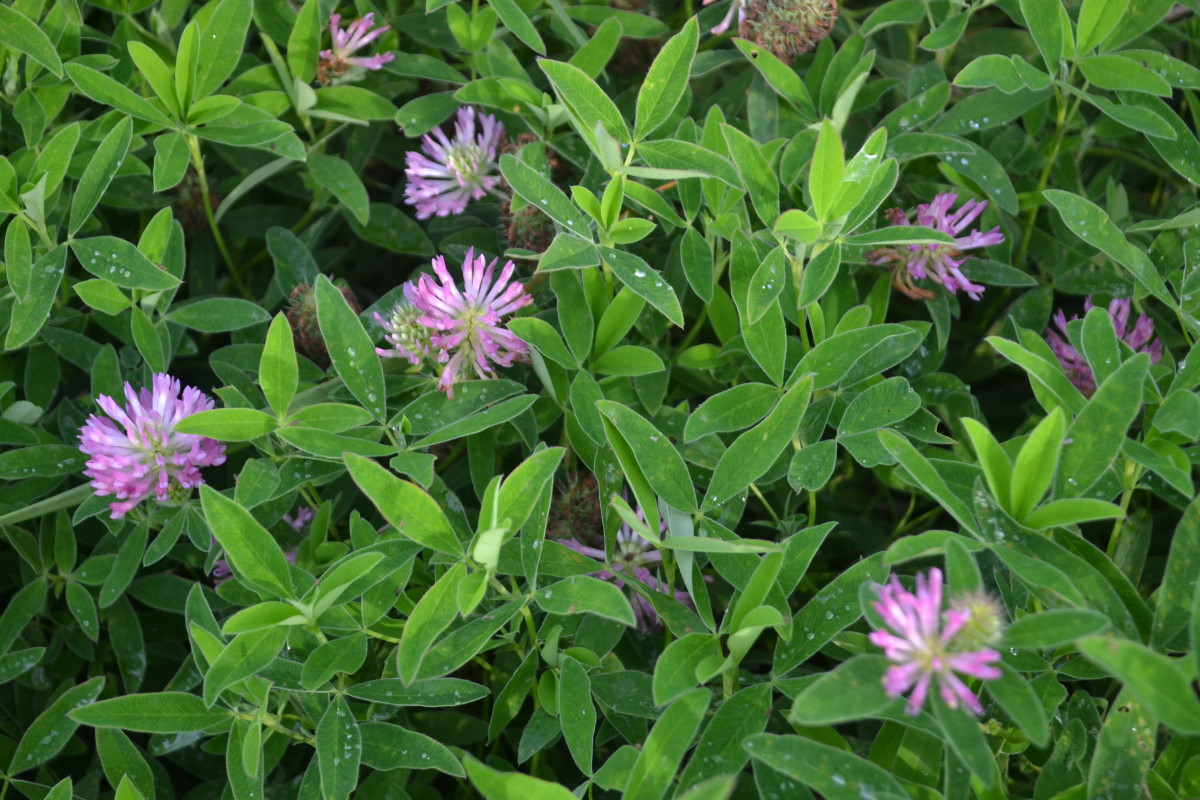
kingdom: Plantae
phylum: Tracheophyta
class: Magnoliopsida
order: Fabales
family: Fabaceae
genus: Trifolium
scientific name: Trifolium medium
